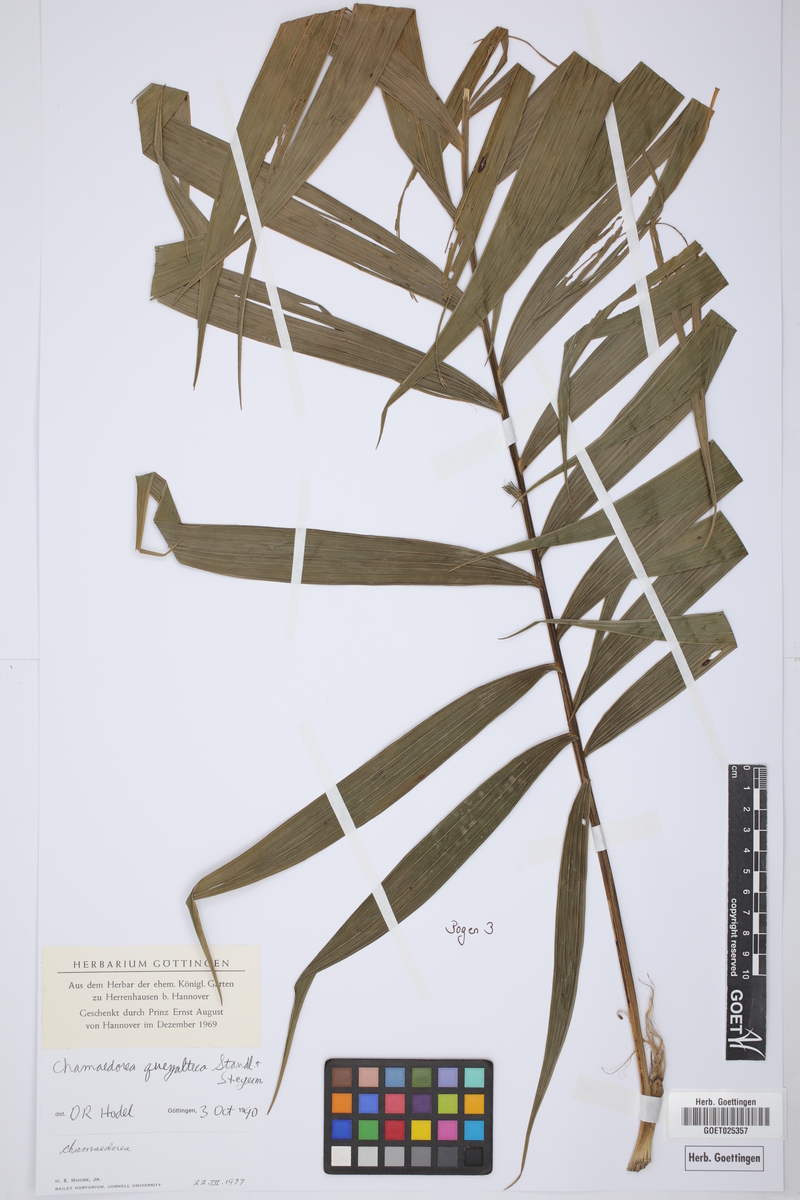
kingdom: Plantae
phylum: Tracheophyta
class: Liliopsida
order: Arecales
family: Arecaceae
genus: Chamaedorea
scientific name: Chamaedorea costaricana
